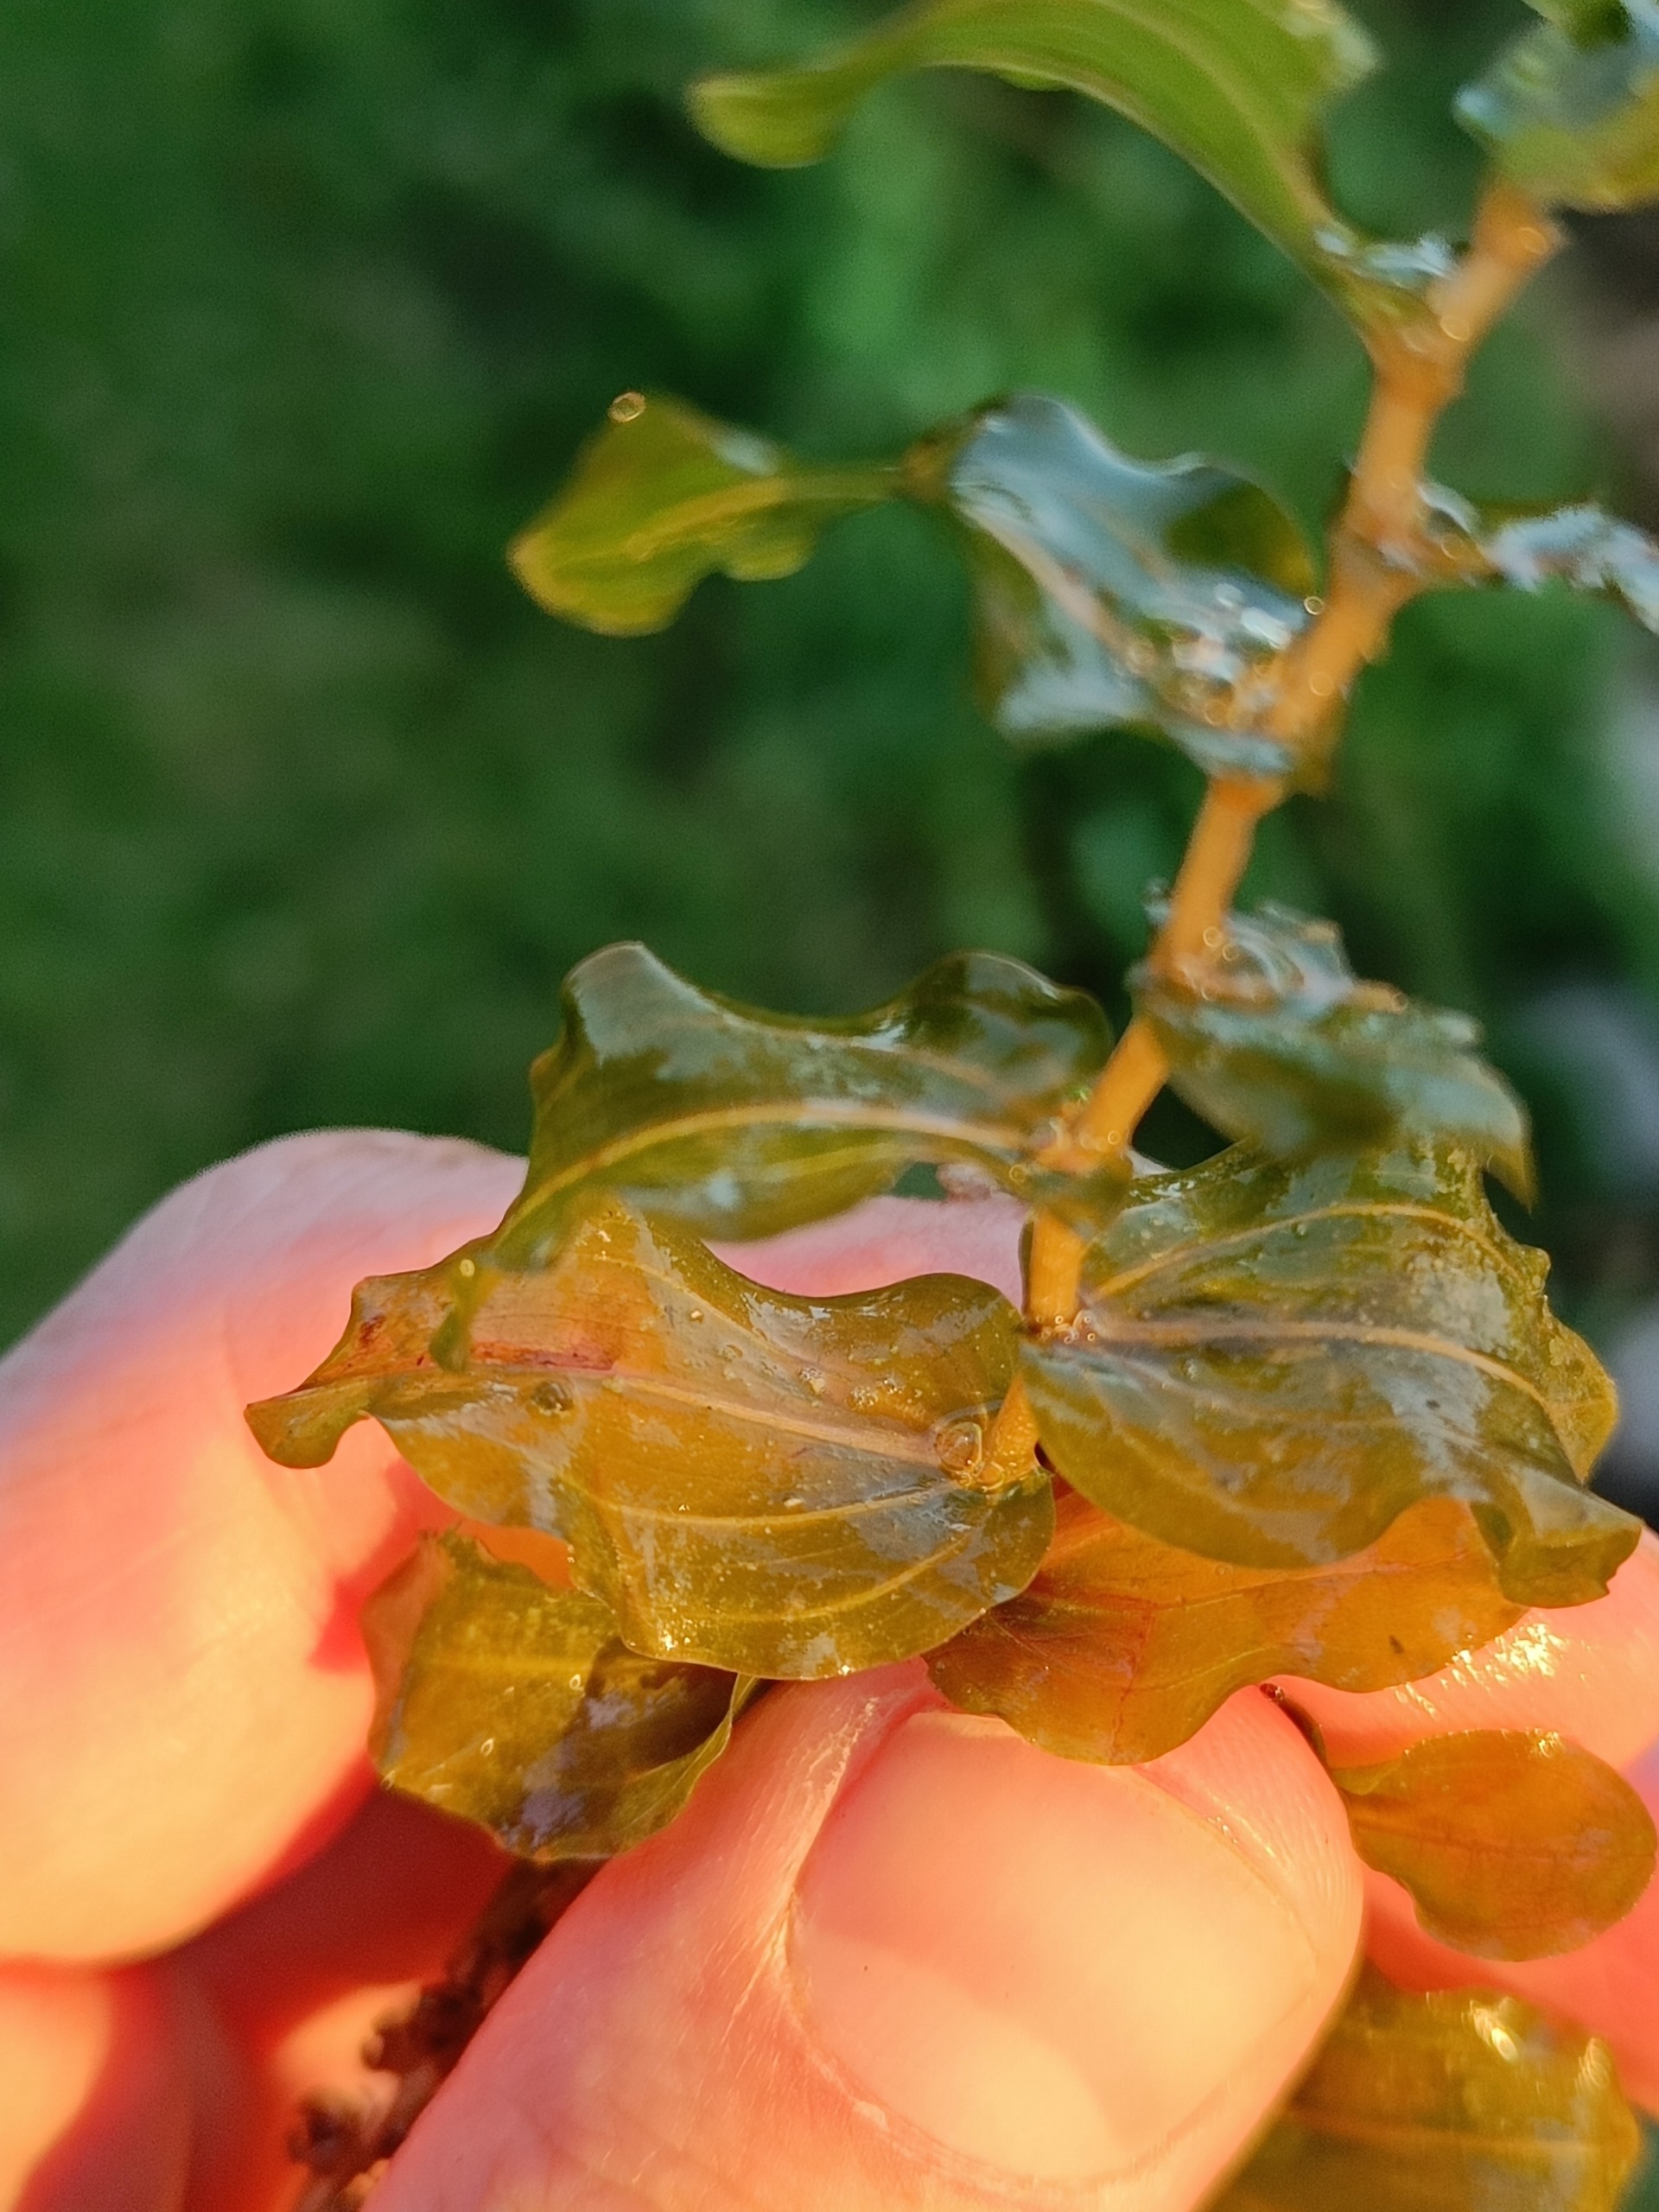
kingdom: Plantae
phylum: Tracheophyta
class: Liliopsida
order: Alismatales
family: Potamogetonaceae
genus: Potamogeton
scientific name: Potamogeton perfoliatus
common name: Hjertebladet vandaks
